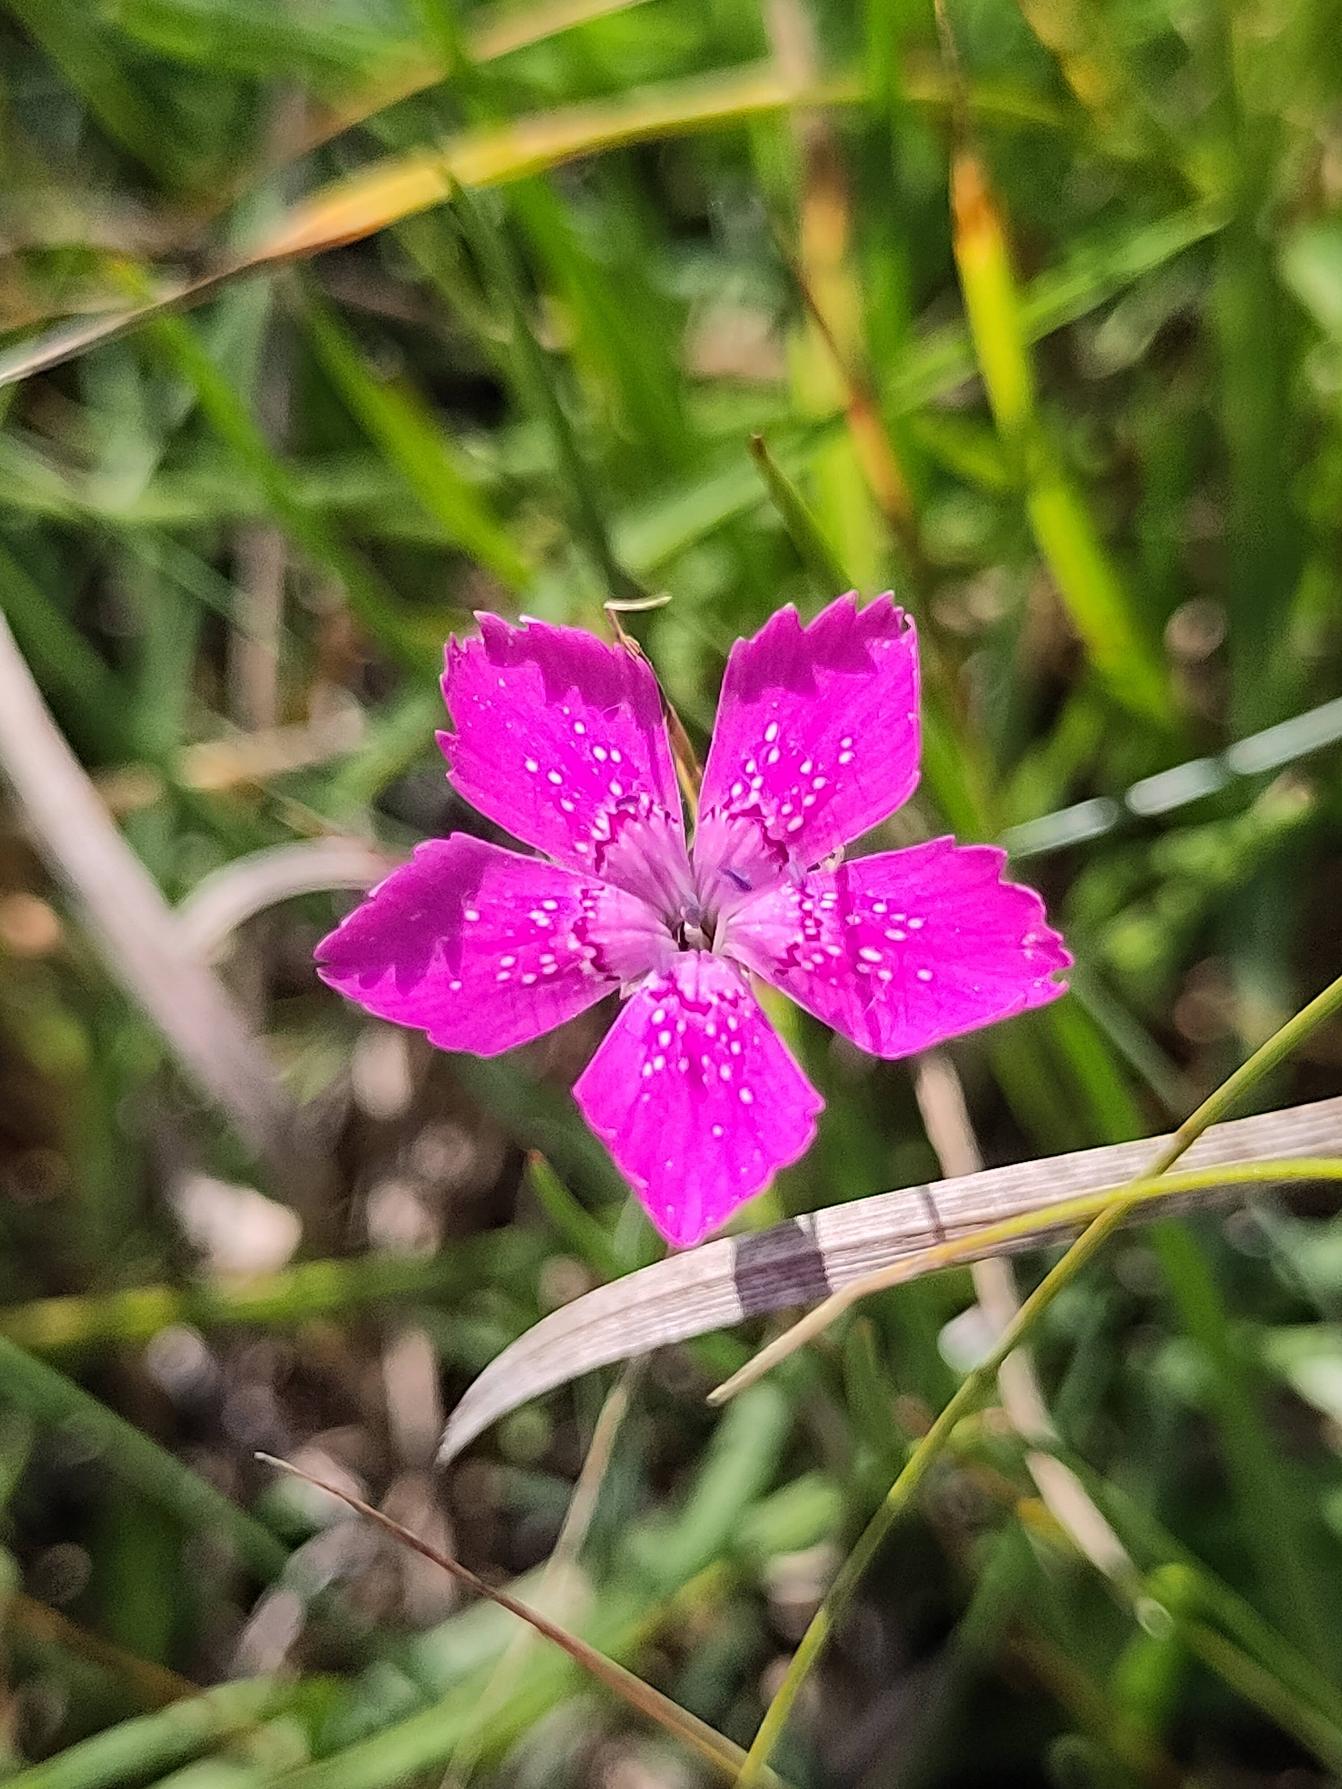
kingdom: Plantae
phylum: Tracheophyta
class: Magnoliopsida
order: Caryophyllales
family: Caryophyllaceae
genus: Dianthus
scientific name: Dianthus deltoides
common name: Bakke-nellike
